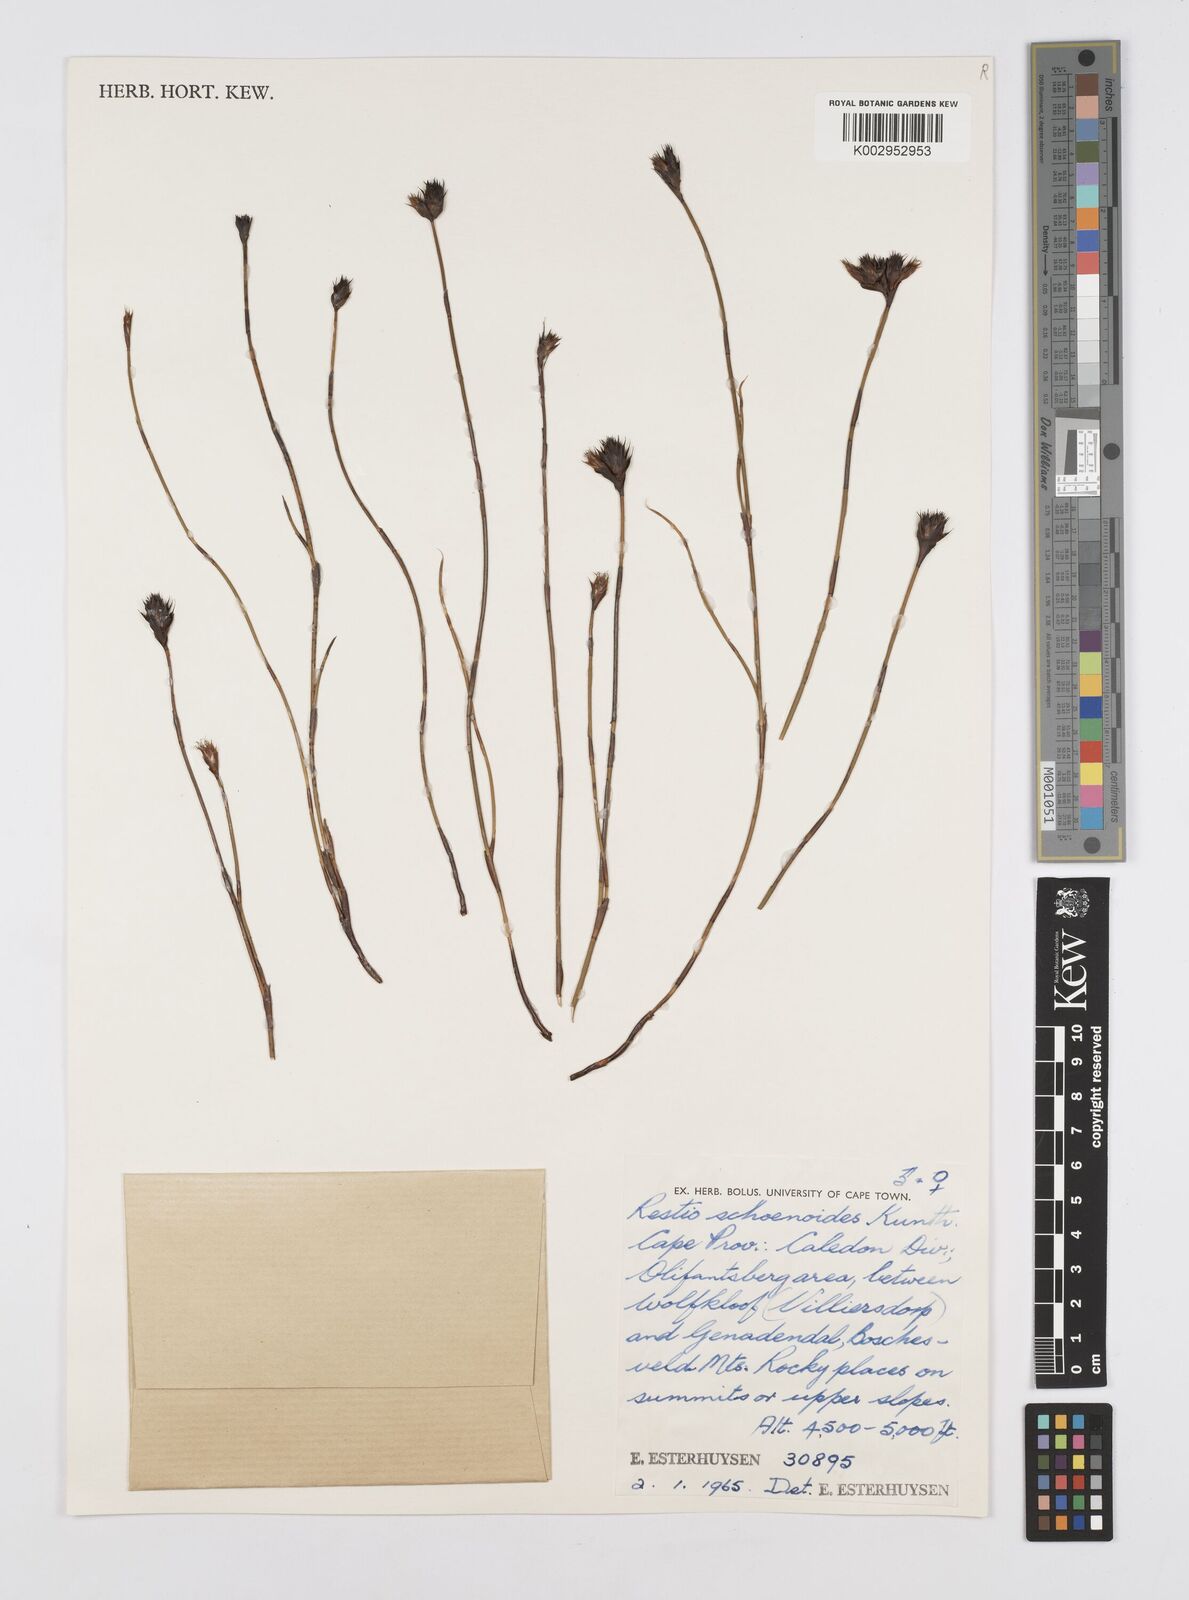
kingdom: Plantae
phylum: Tracheophyta
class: Liliopsida
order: Poales
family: Restionaceae
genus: Restio
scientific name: Restio schoenoides
